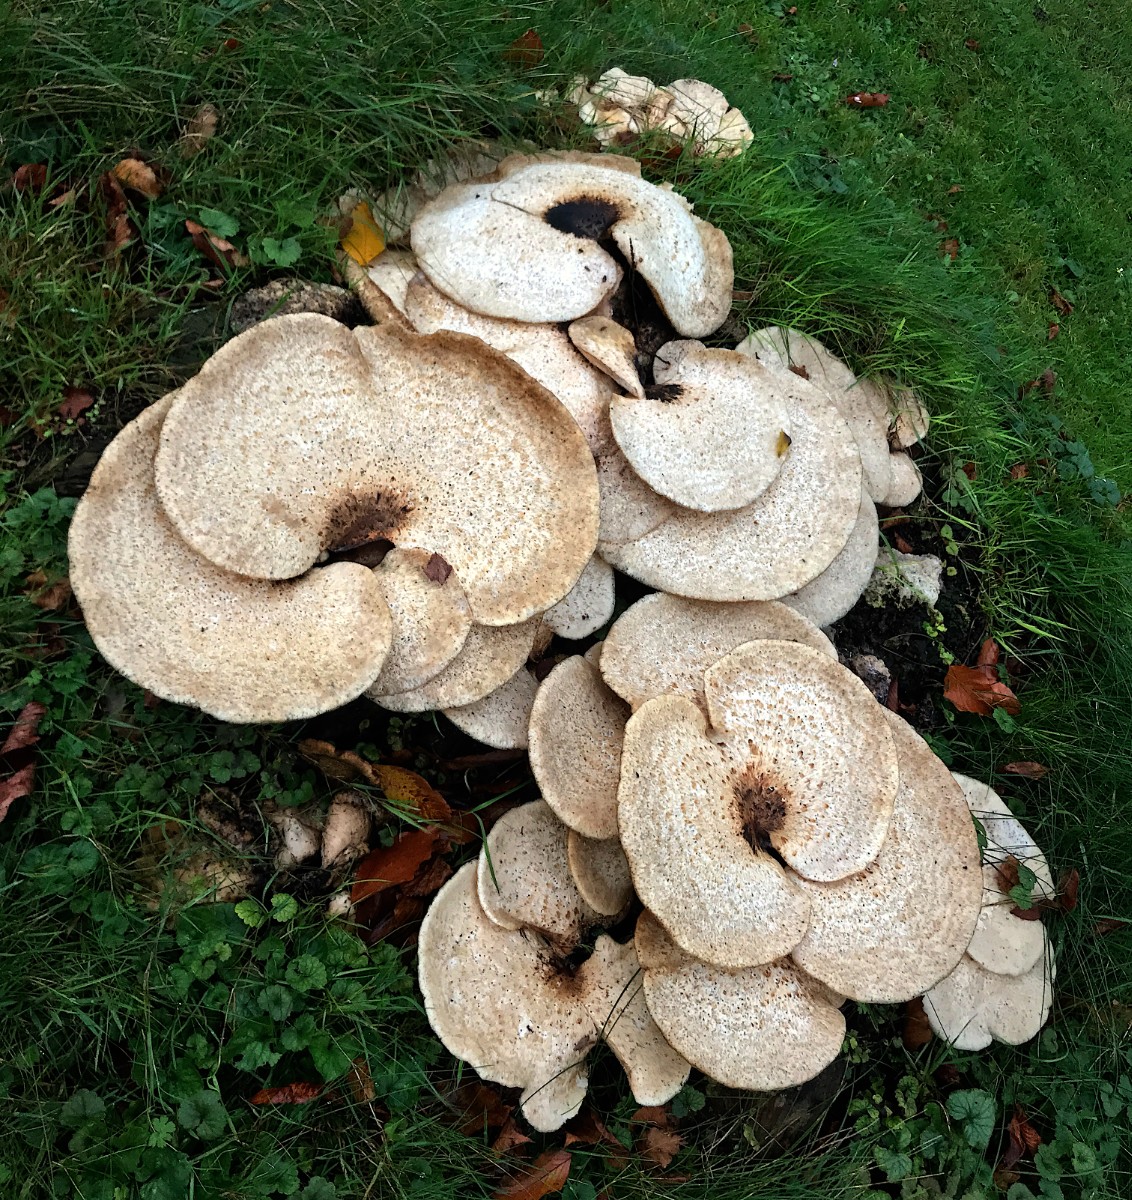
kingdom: Fungi
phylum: Basidiomycota
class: Agaricomycetes
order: Polyporales
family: Polyporaceae
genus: Cerioporus
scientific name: Cerioporus squamosus
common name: skællet stilkporesvamp
